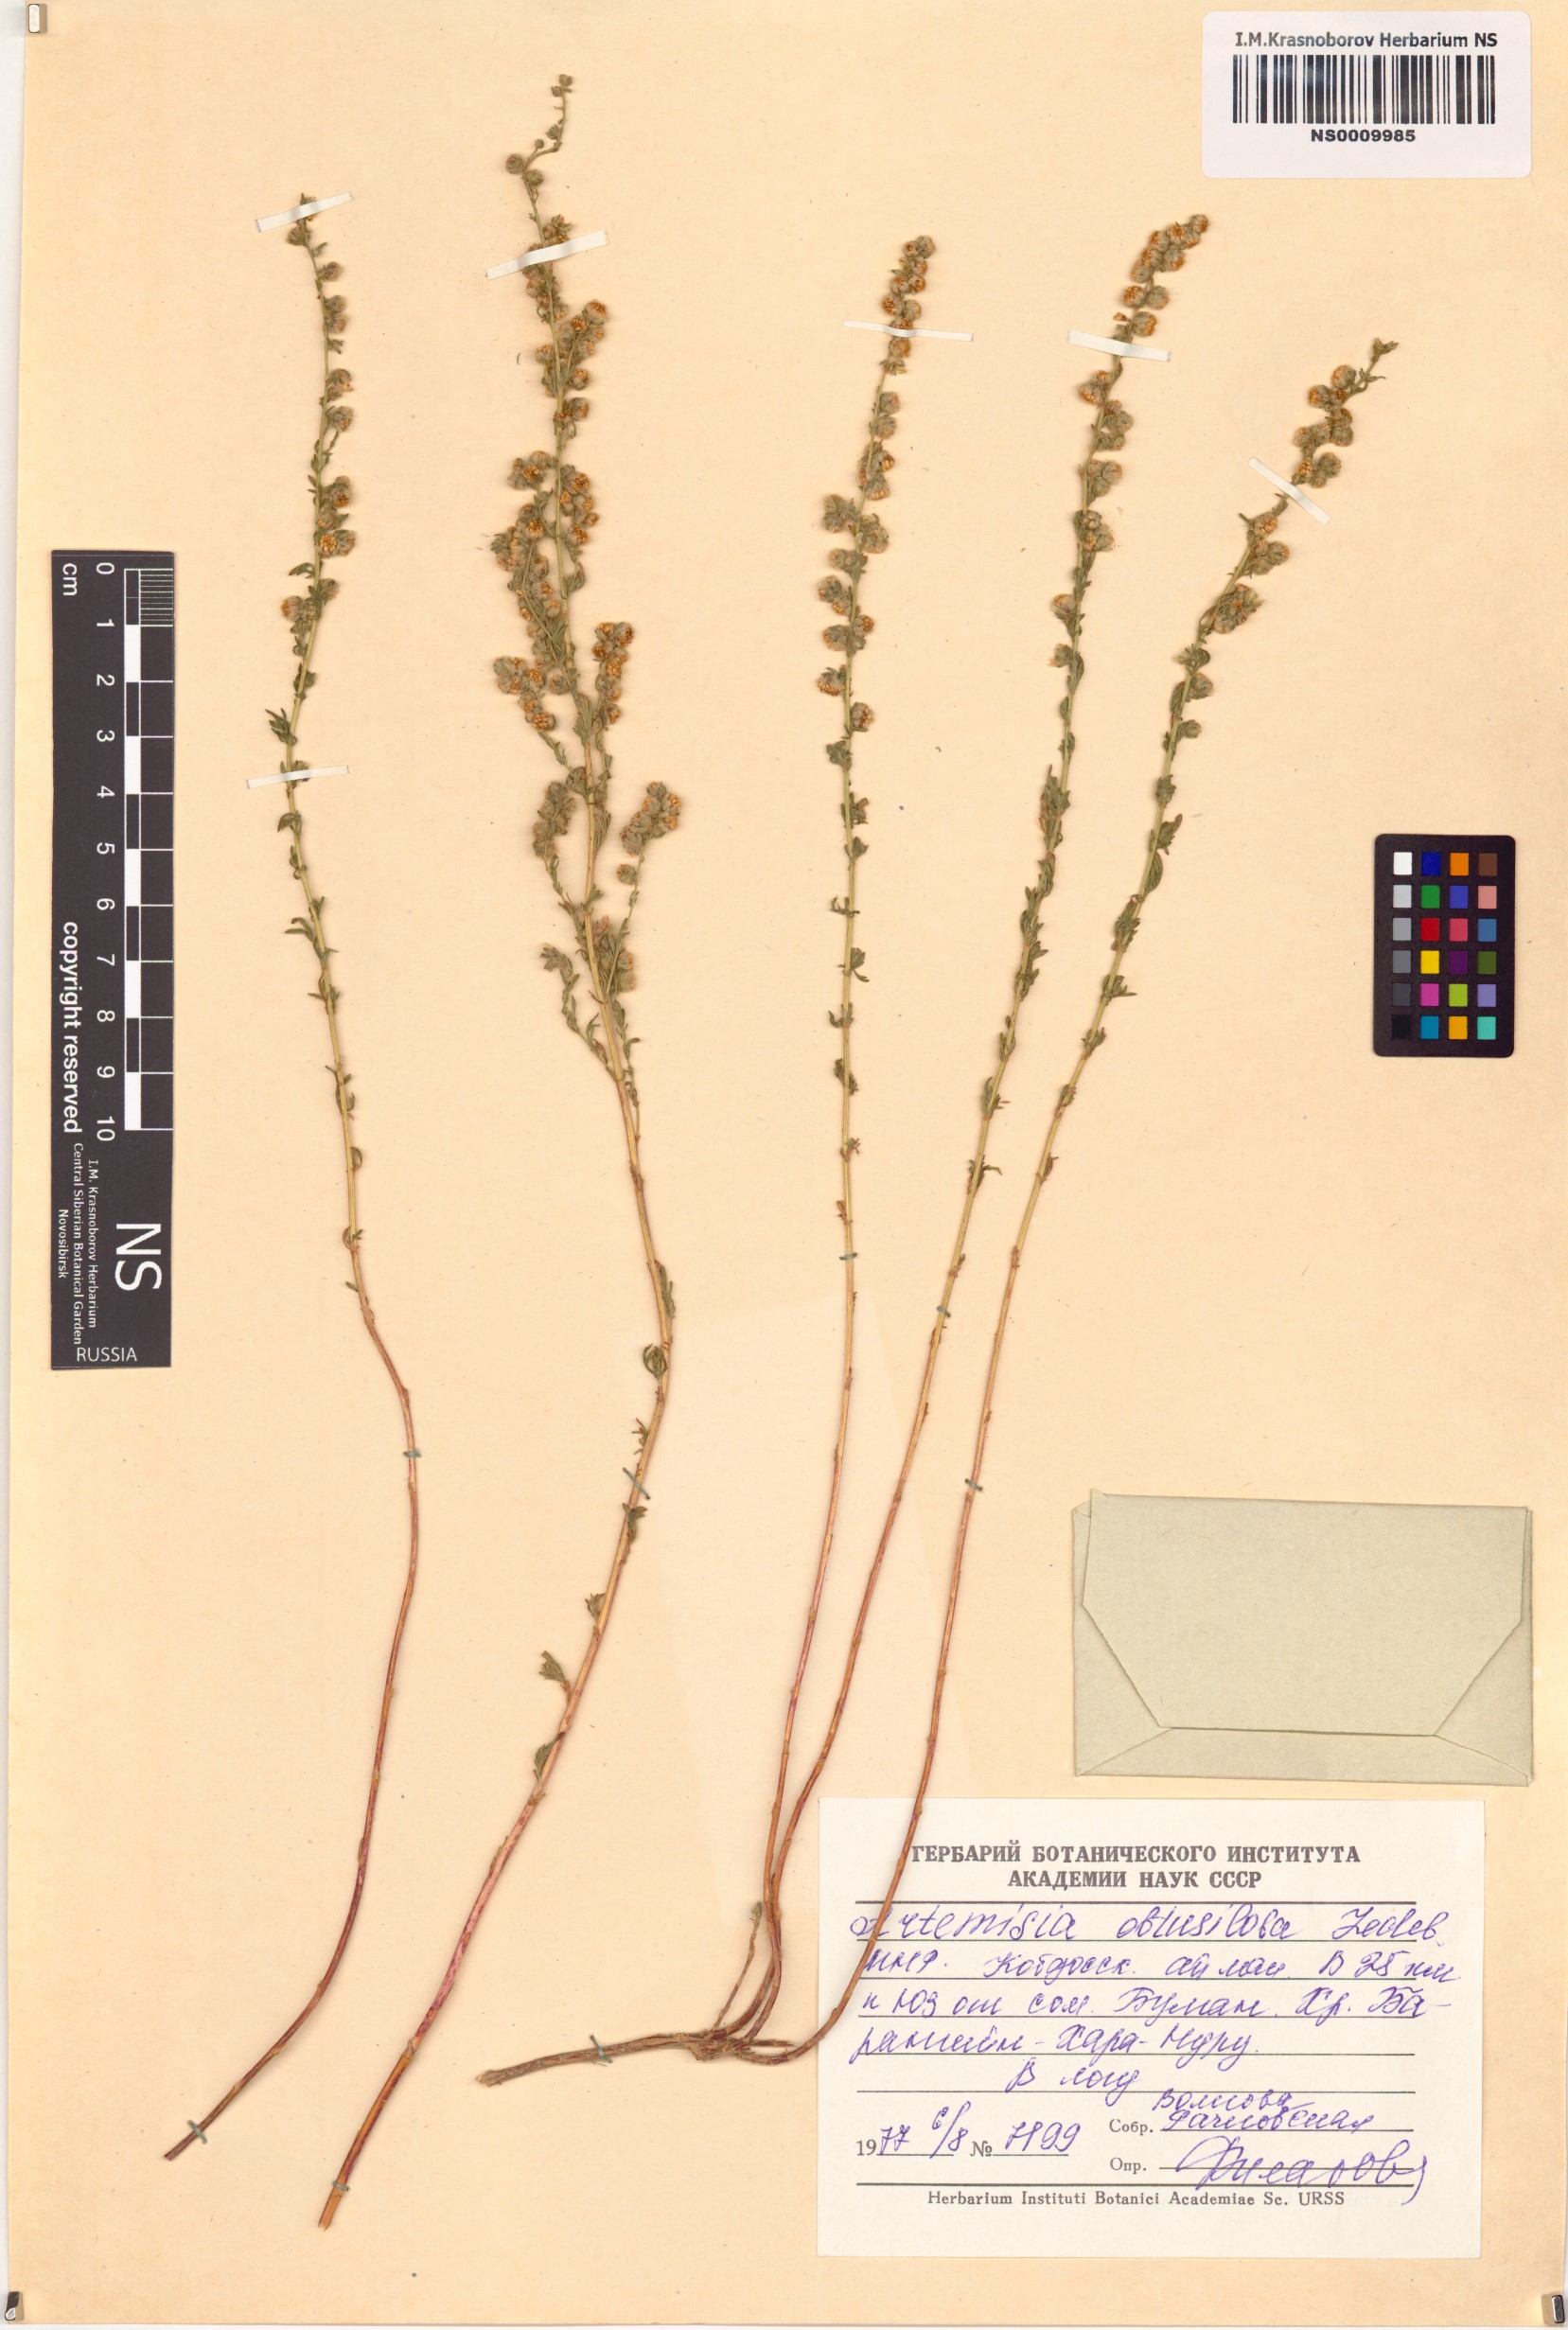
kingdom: Plantae
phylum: Tracheophyta
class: Magnoliopsida
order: Asterales
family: Asteraceae
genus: Artemisia
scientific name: Artemisia obtusiloba
